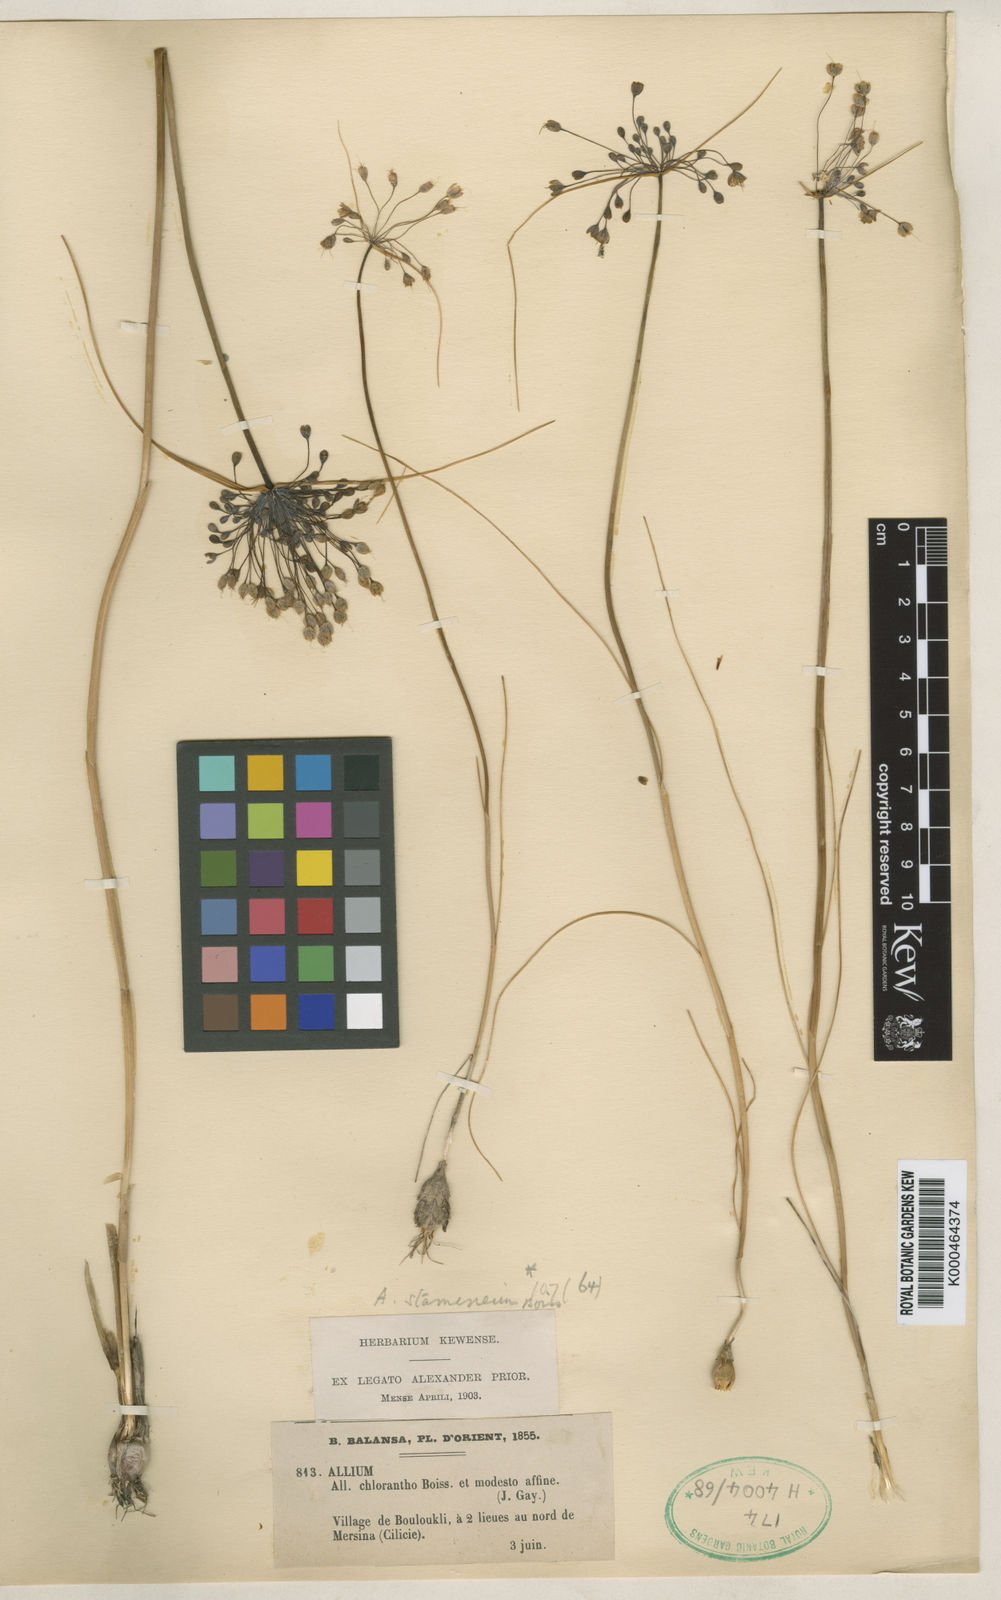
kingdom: Plantae
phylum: Tracheophyta
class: Liliopsida
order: Asparagales
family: Amaryllidaceae
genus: Allium
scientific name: Allium stamineum
